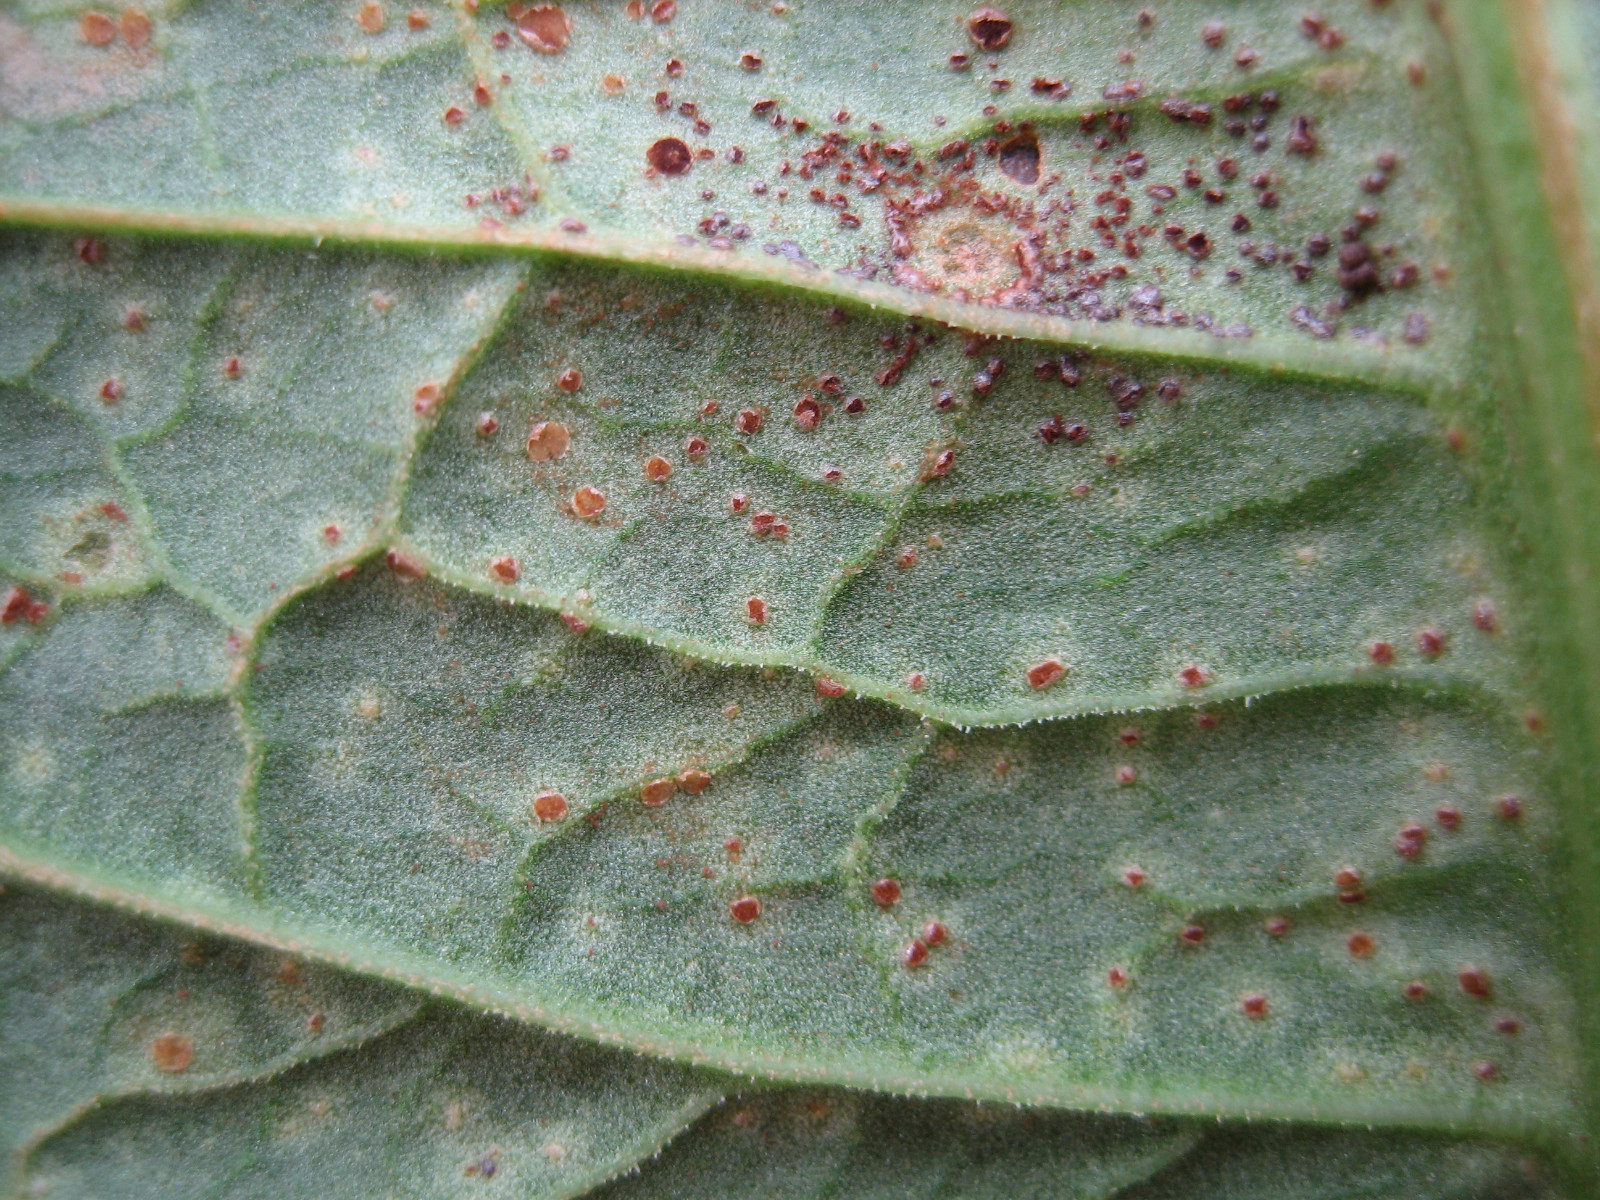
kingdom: Fungi
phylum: Basidiomycota
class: Pucciniomycetes
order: Pucciniales
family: Pucciniaceae
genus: Uromyces
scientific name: Uromyces rumicis
